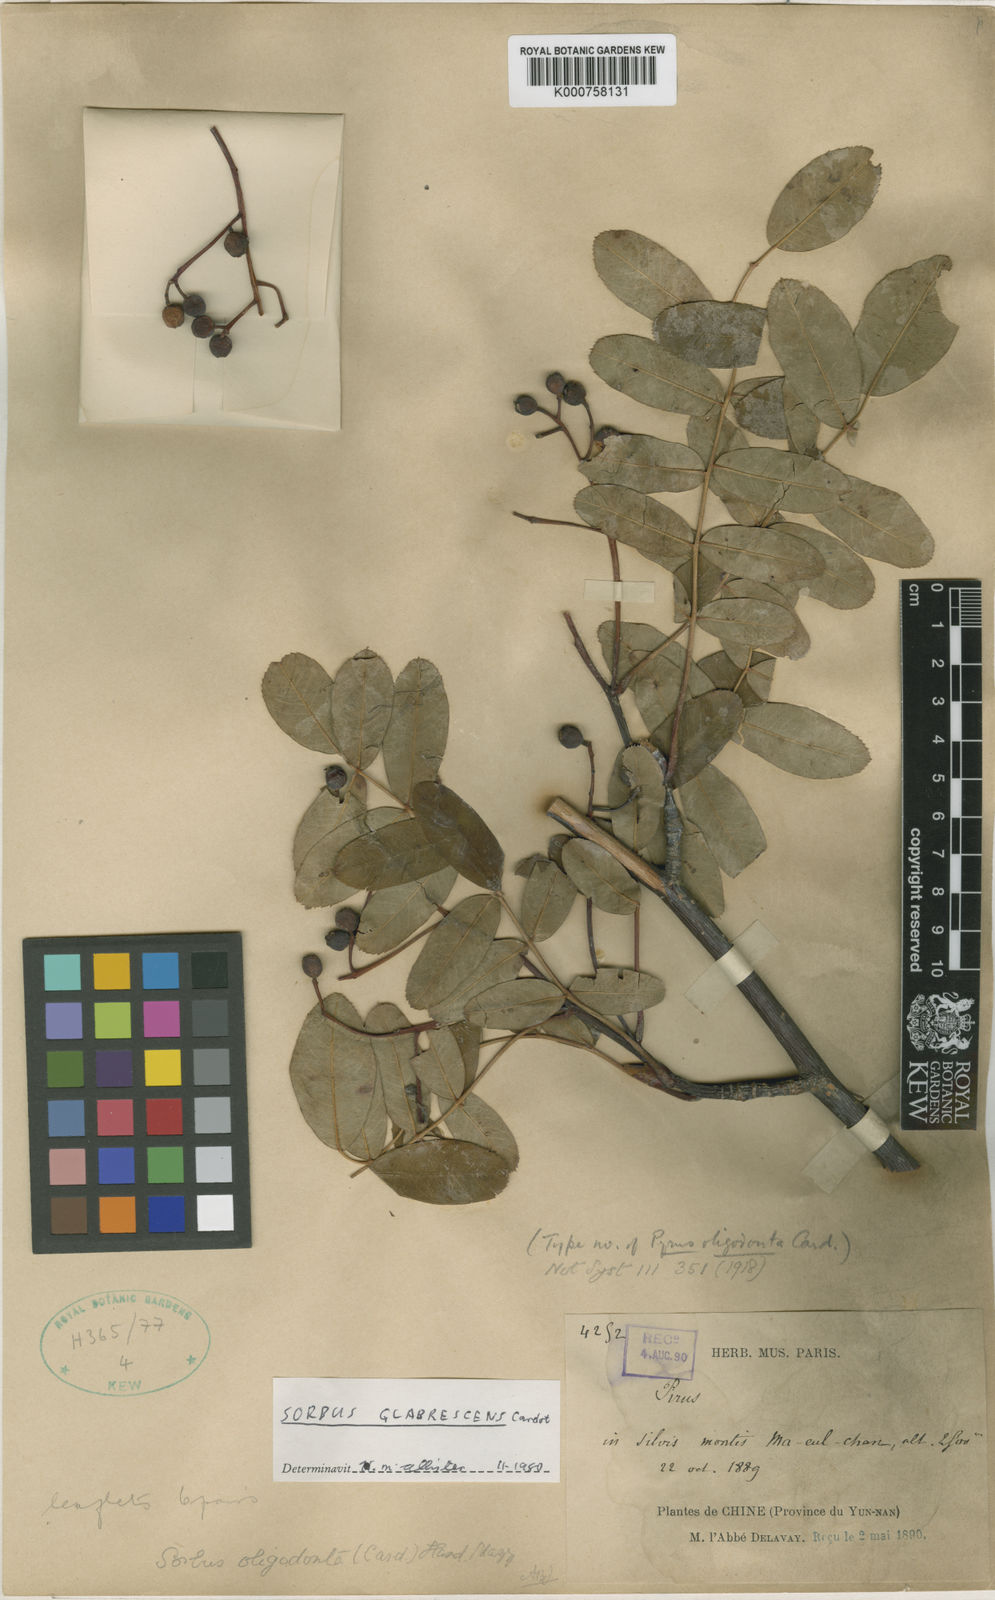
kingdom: Plantae
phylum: Tracheophyta
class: Magnoliopsida
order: Rosales
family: Rosaceae
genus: Sorbus
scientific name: Sorbus hupehensis
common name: Hupeh rowan
